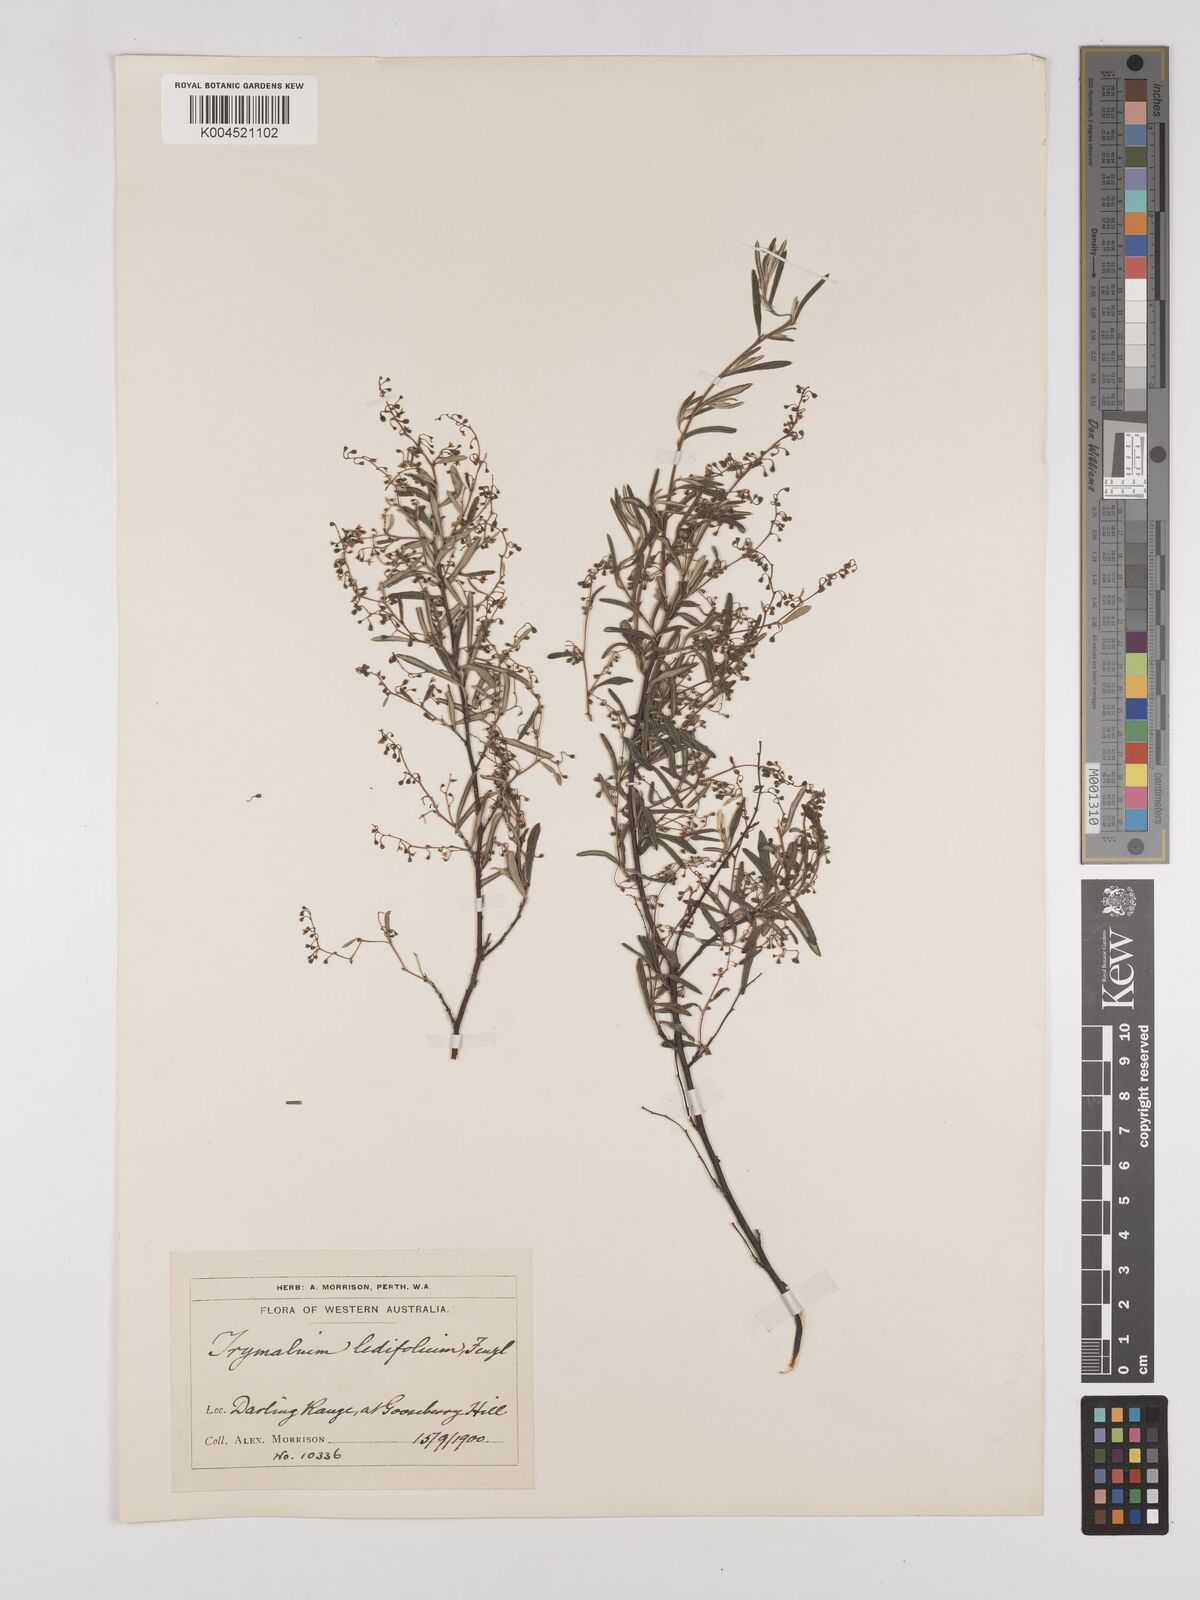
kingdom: Plantae
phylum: Tracheophyta
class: Magnoliopsida
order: Rosales
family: Rhamnaceae
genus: Trymalium
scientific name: Trymalium ledifolium
